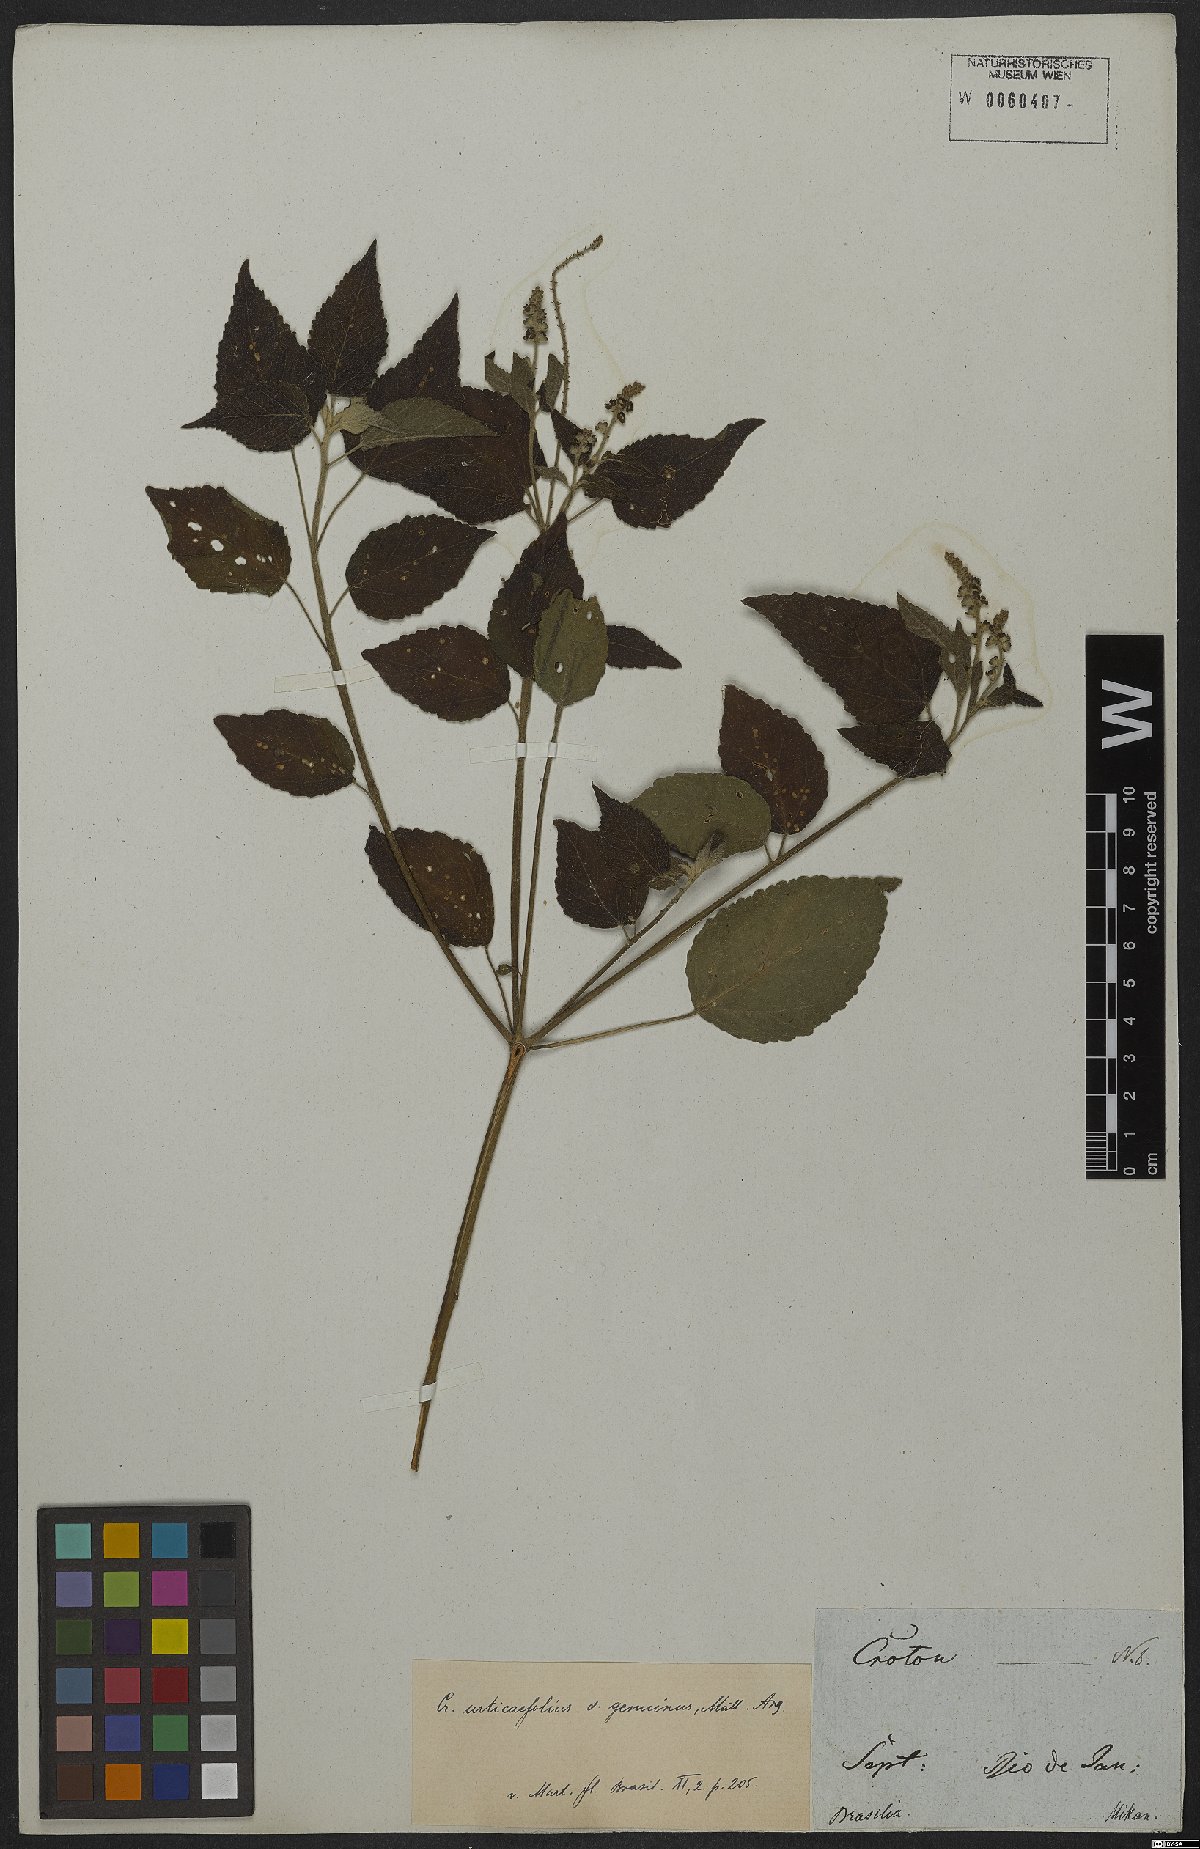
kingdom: Plantae
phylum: Tracheophyta
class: Magnoliopsida
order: Malpighiales
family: Euphorbiaceae
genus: Croton
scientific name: Croton urticifolius
